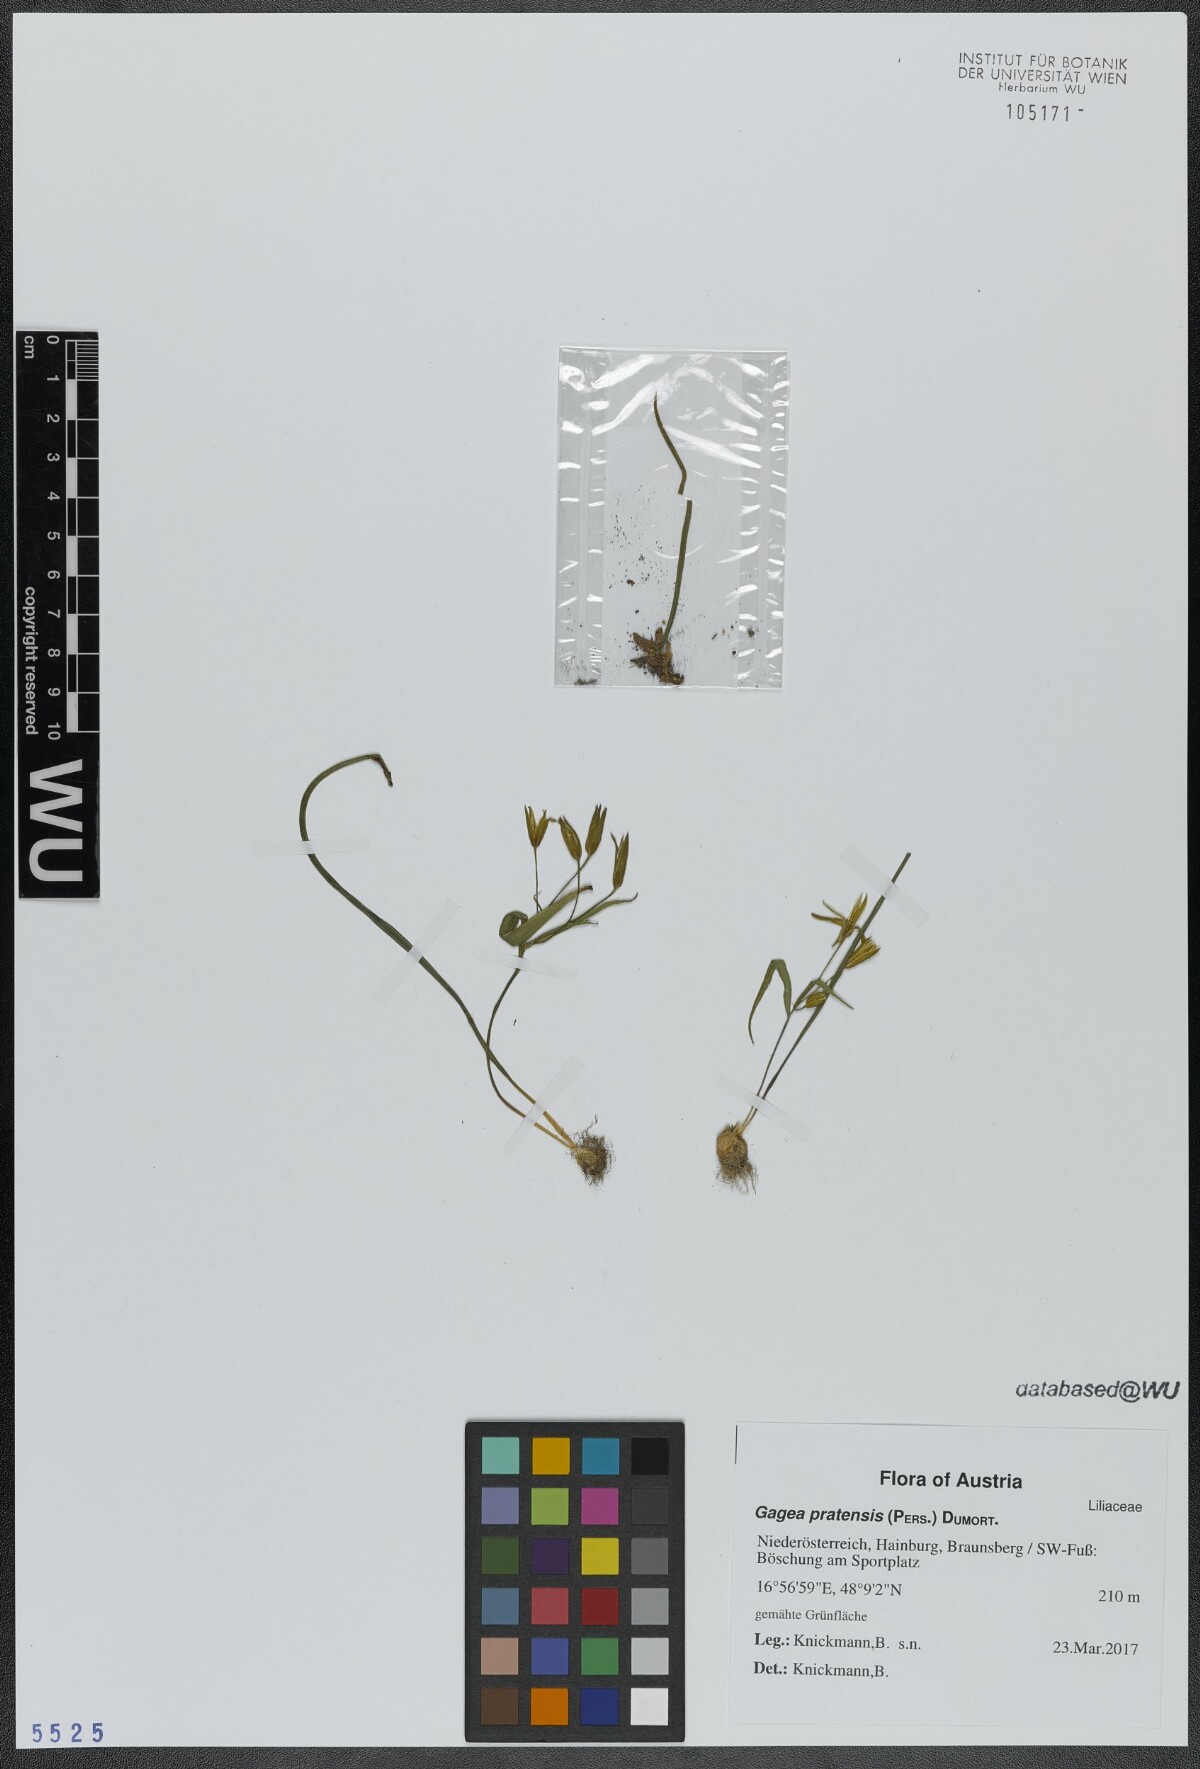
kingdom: Plantae
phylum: Tracheophyta
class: Liliopsida
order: Liliales
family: Liliaceae
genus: Gagea
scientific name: Gagea pratensis
